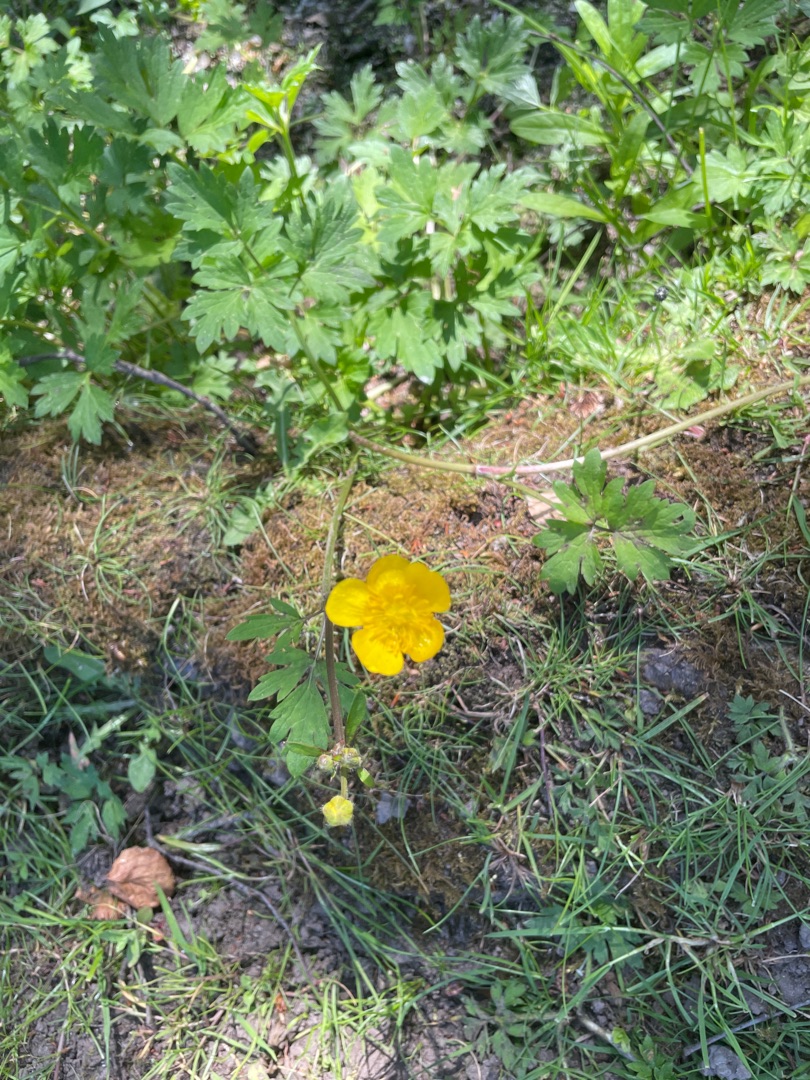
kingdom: Plantae
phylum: Tracheophyta
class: Magnoliopsida
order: Ranunculales
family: Ranunculaceae
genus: Ranunculus
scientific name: Ranunculus repens
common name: Lav ranunkel
